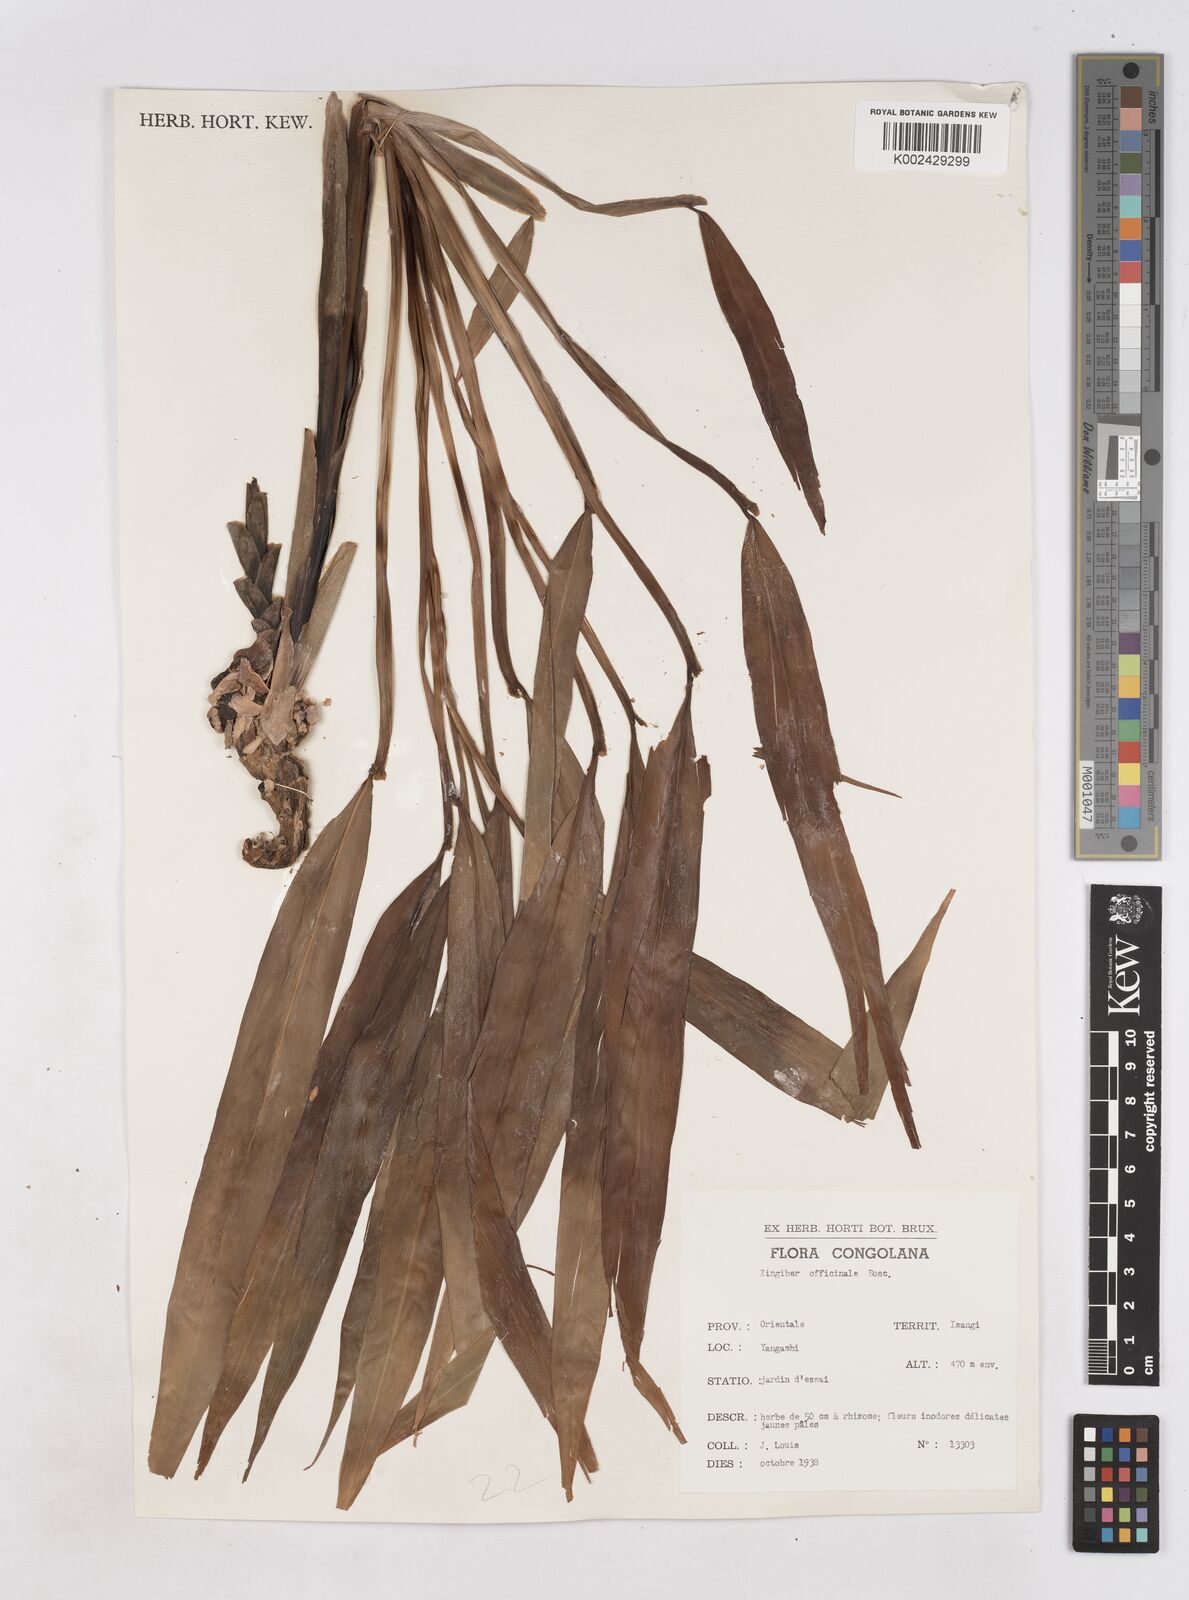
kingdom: Plantae
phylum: Tracheophyta
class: Liliopsida
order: Zingiberales
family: Zingiberaceae
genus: Zingiber
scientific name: Zingiber officinale
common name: Ginger
